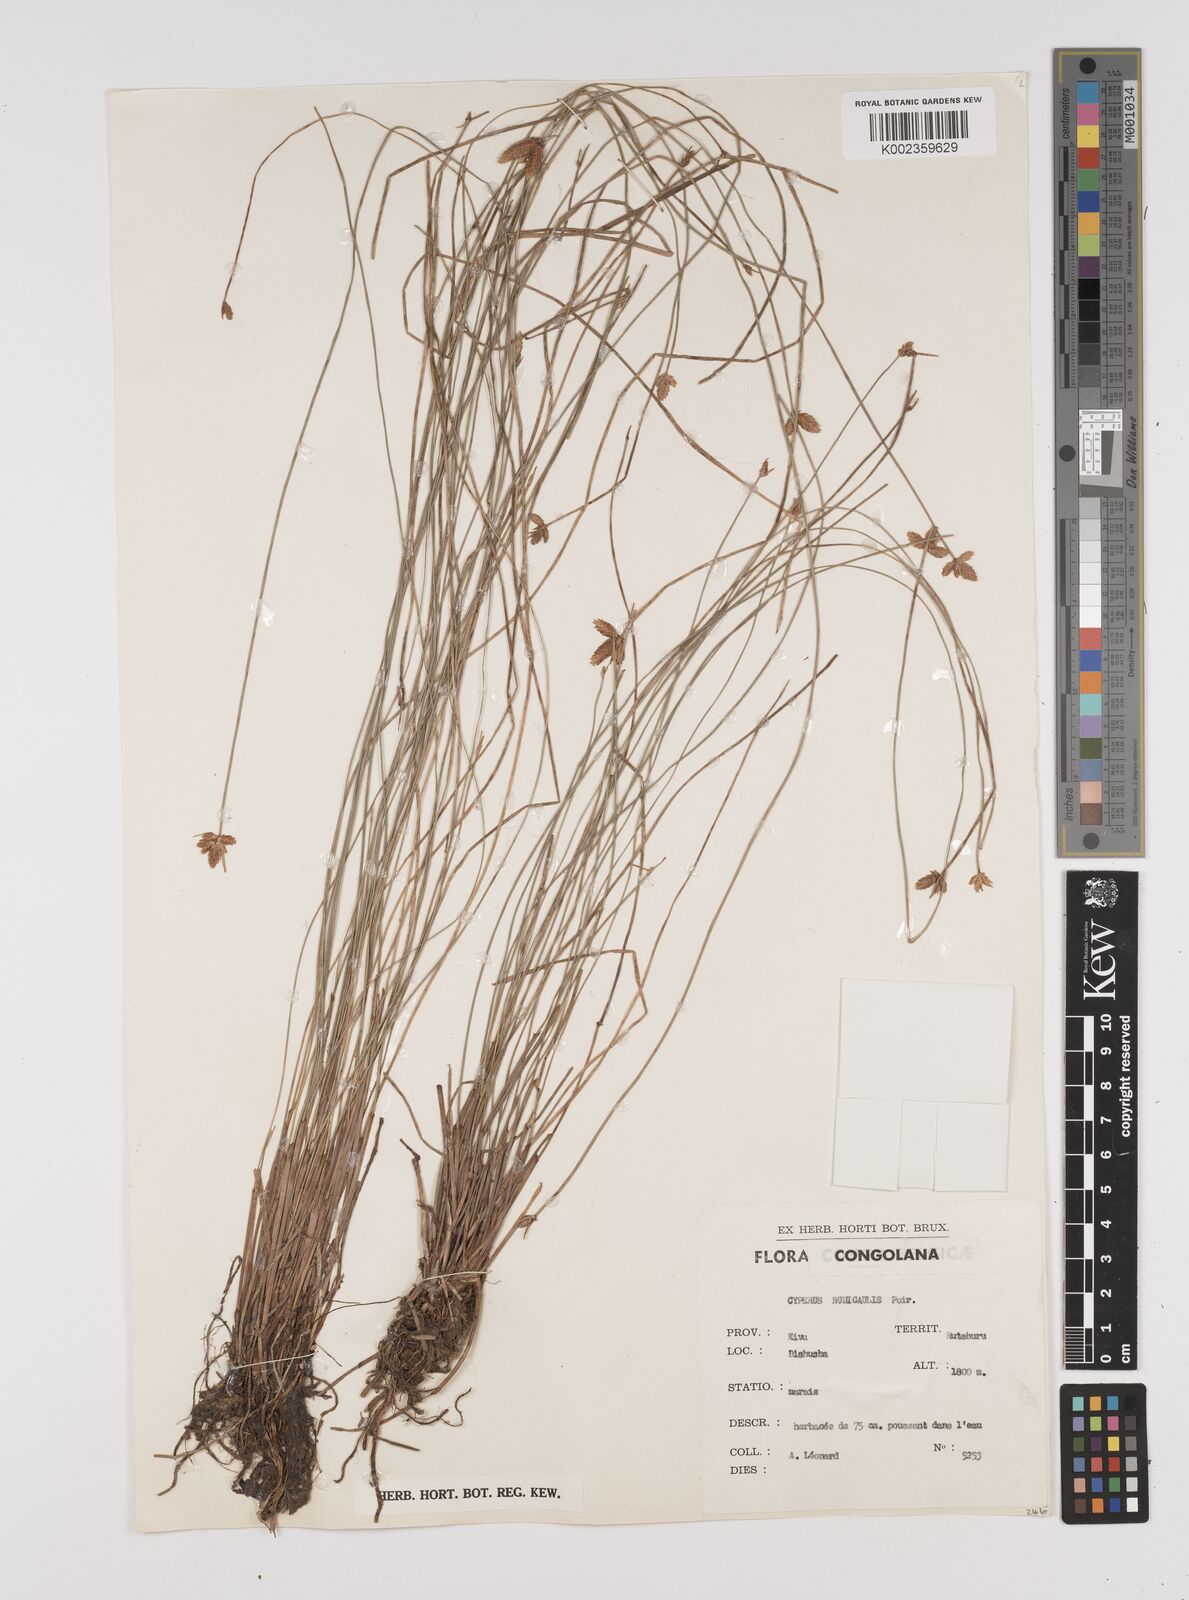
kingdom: Plantae
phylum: Tracheophyta
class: Liliopsida
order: Poales
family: Cyperaceae
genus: Cyperus
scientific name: Cyperus pectinatus
